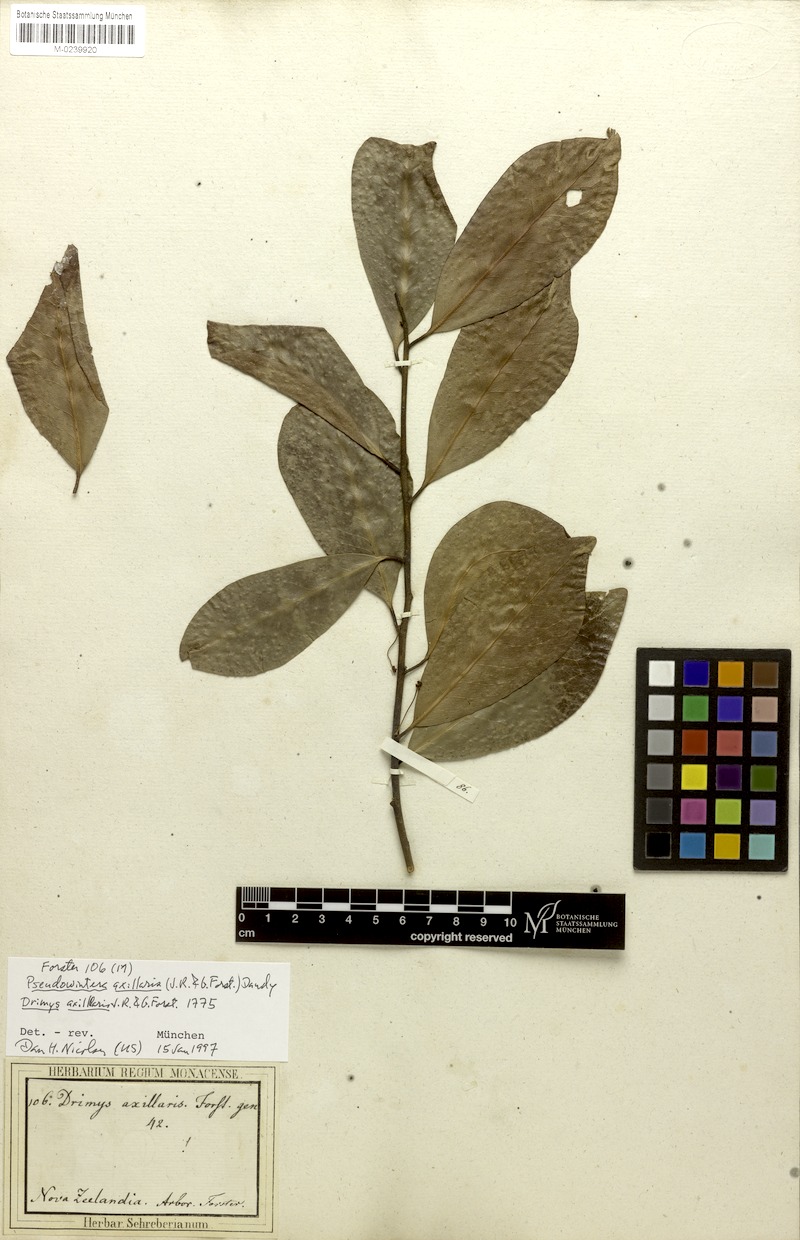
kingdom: Plantae
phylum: Tracheophyta
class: Magnoliopsida
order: Canellales
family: Winteraceae
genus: Pseudowintera
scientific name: Pseudowintera axillaris
